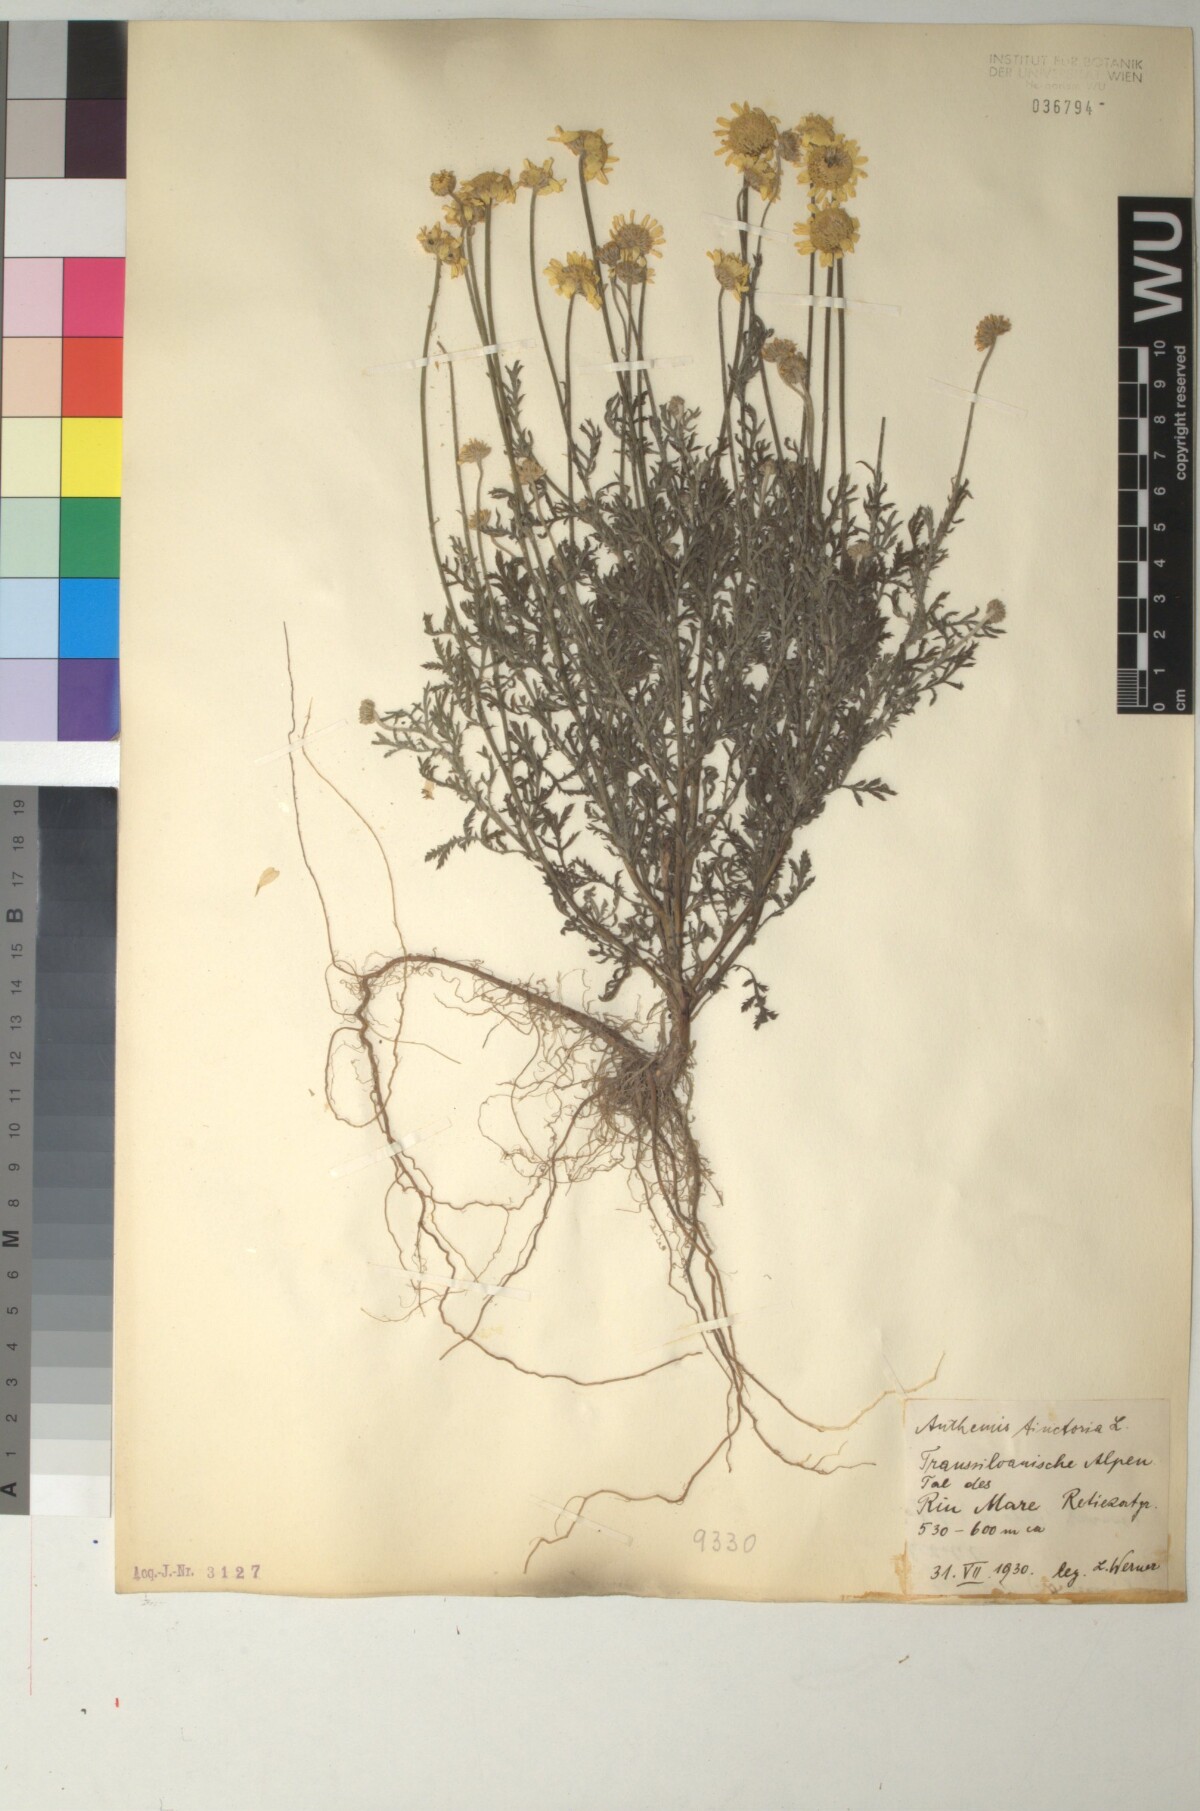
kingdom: Plantae
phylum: Tracheophyta
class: Magnoliopsida
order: Asterales
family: Asteraceae
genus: Cota
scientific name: Cota tinctoria
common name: Golden chamomile
